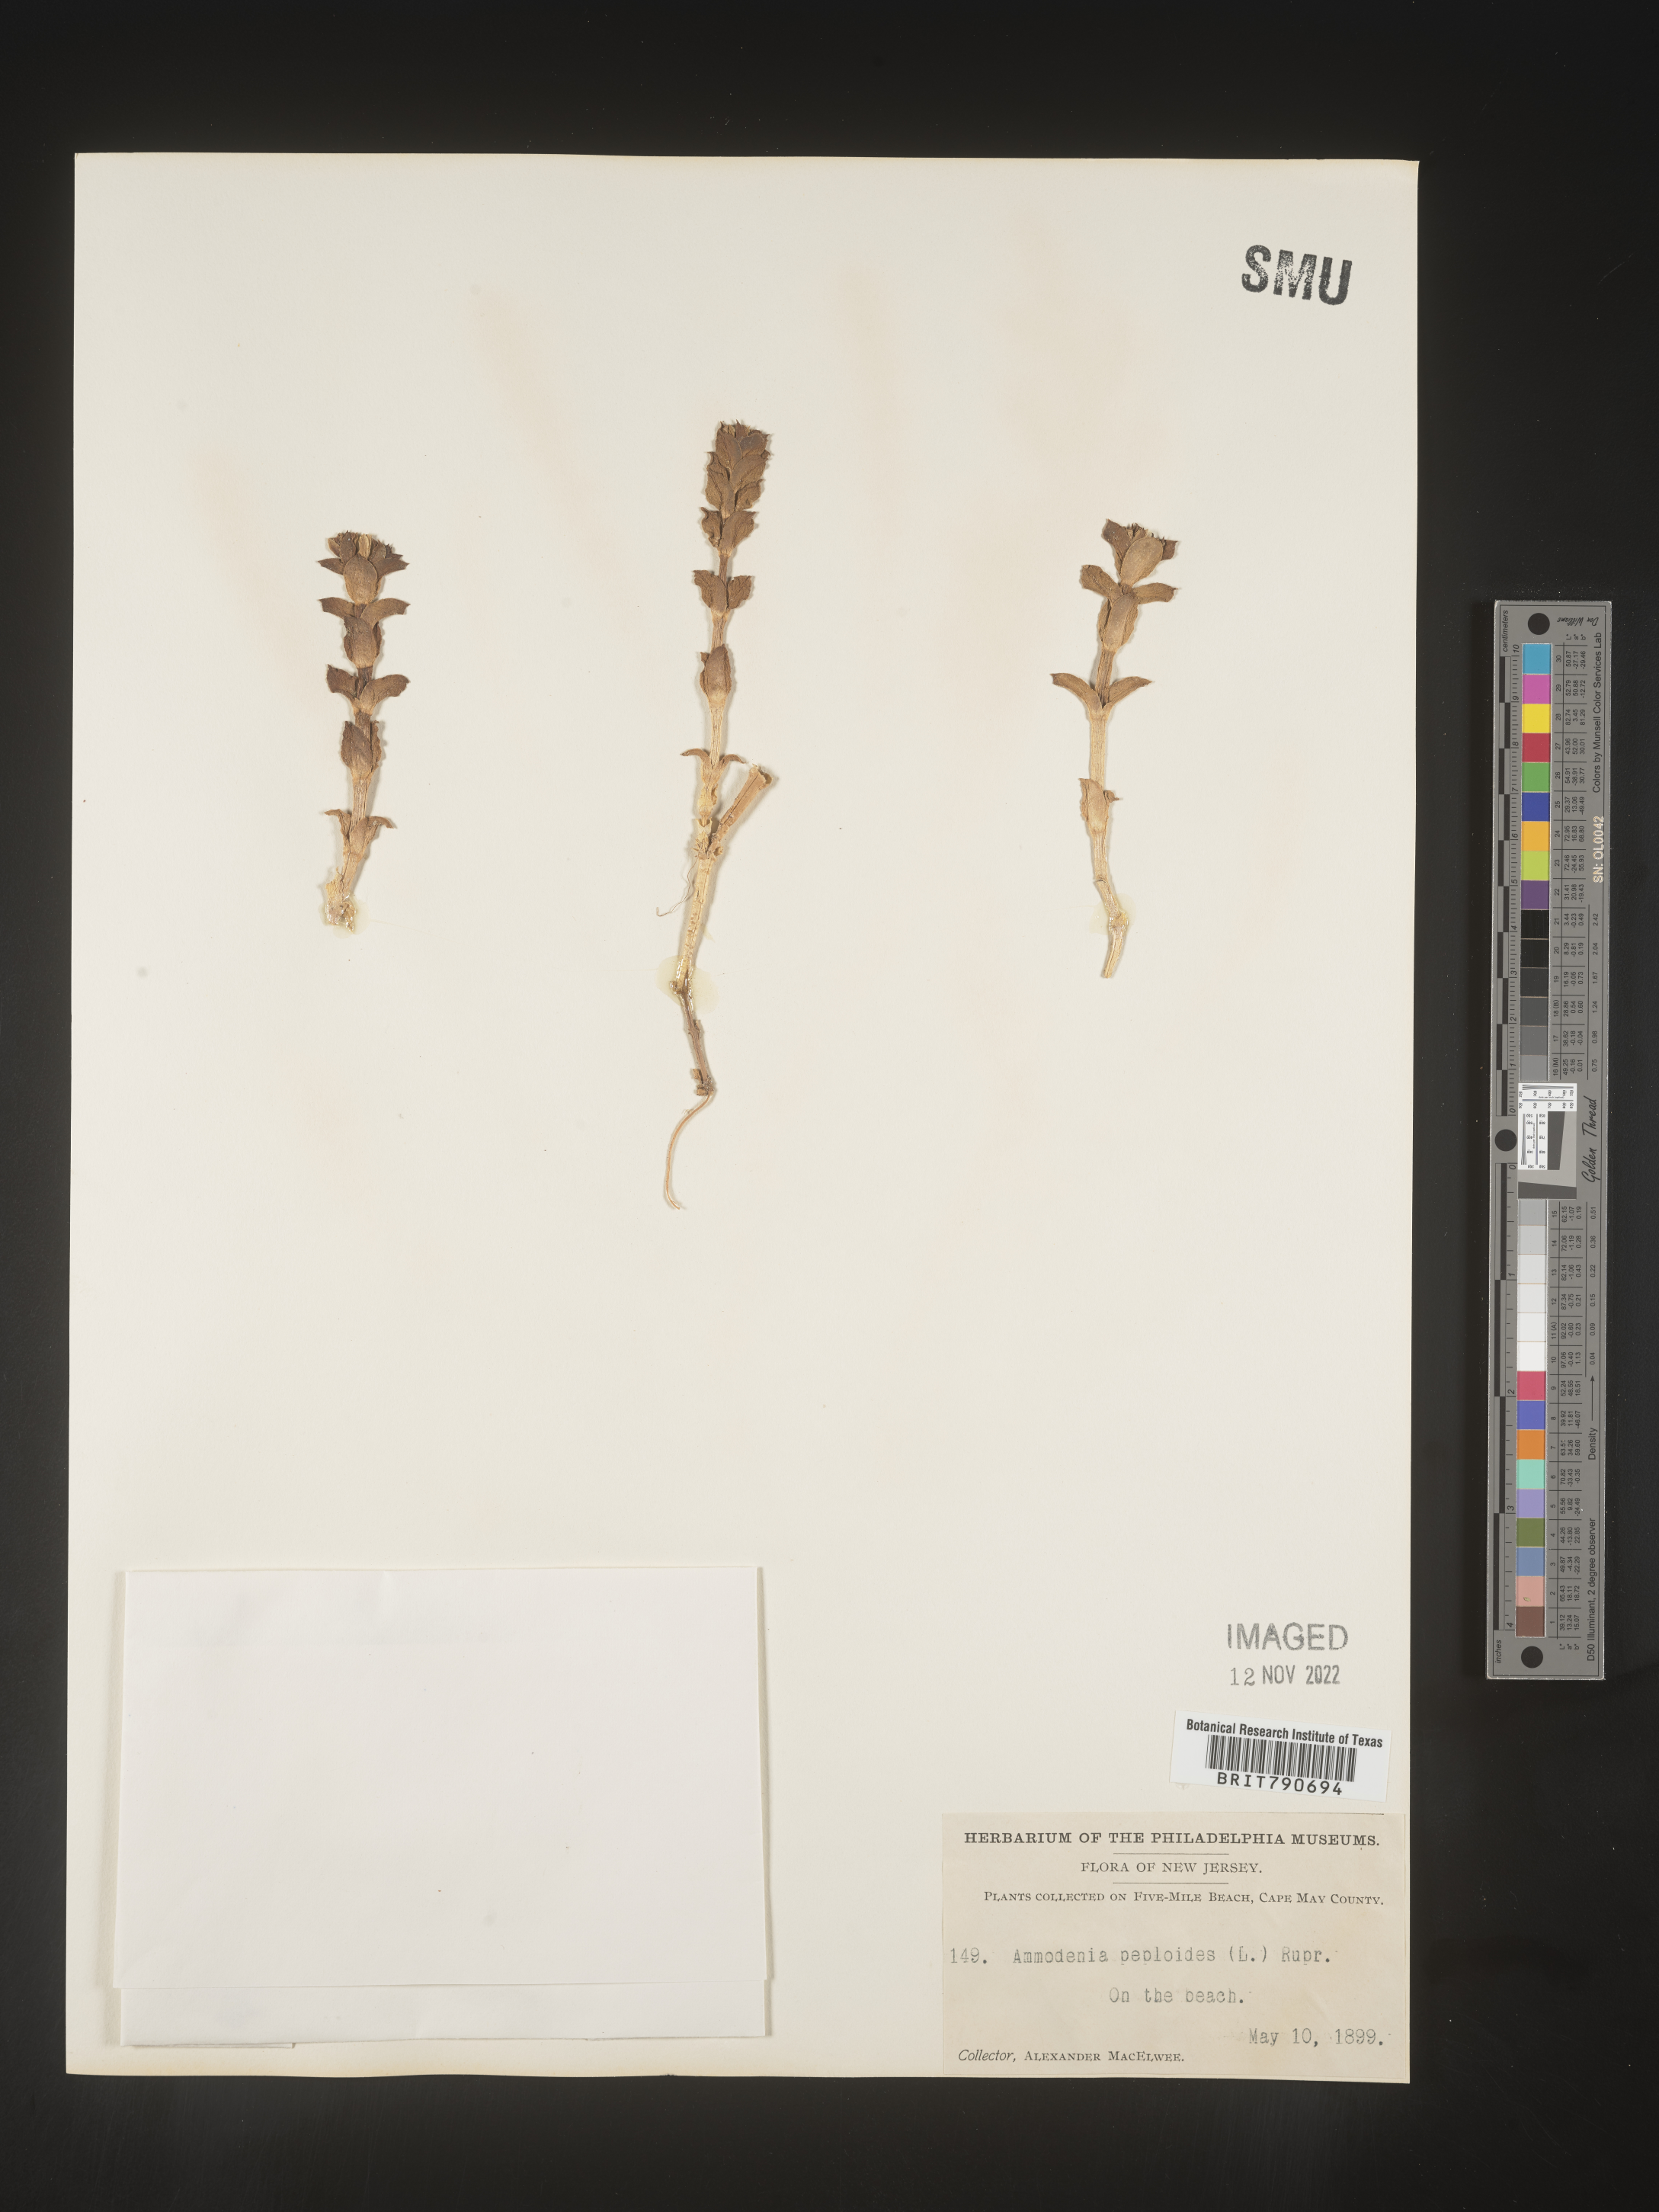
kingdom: Plantae
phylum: Tracheophyta
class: Magnoliopsida
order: Malvales
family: Malvaceae
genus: Clappertonia
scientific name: Clappertonia
